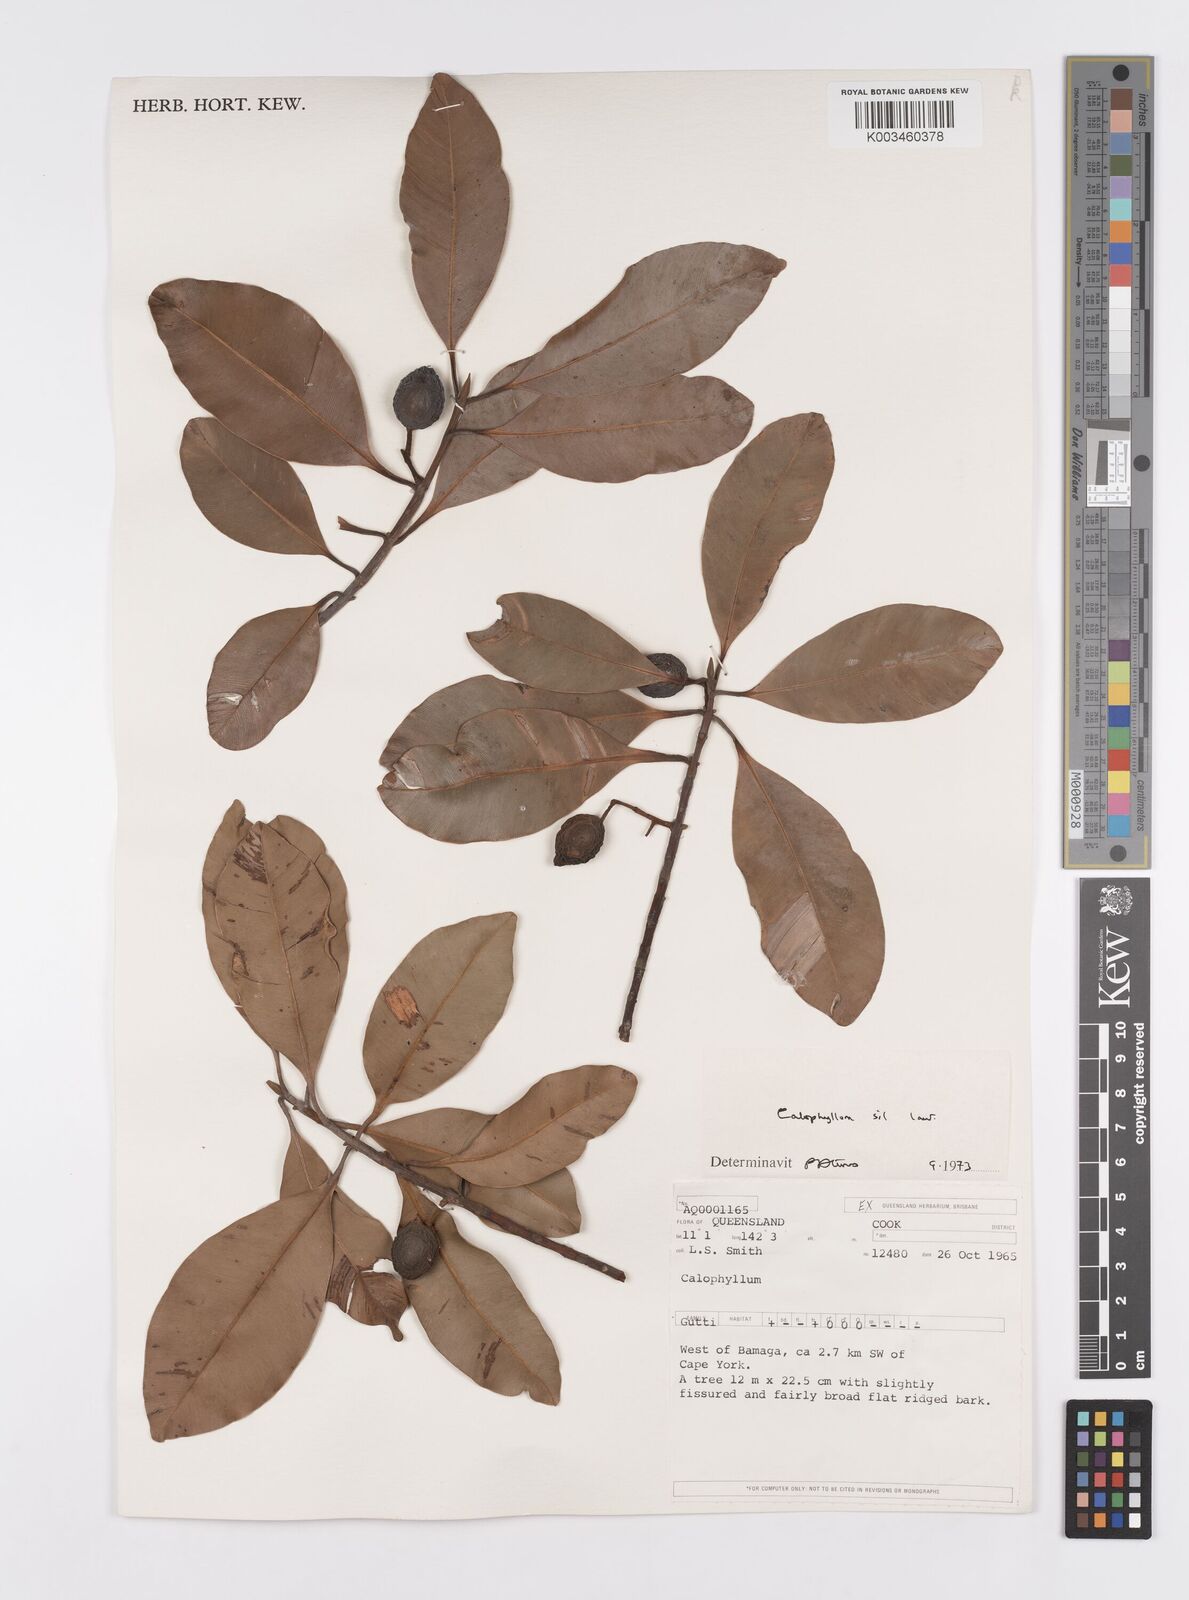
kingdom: Plantae
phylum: Tracheophyta
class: Magnoliopsida
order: Malpighiales
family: Calophyllaceae
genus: Calophyllum
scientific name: Calophyllum sil
